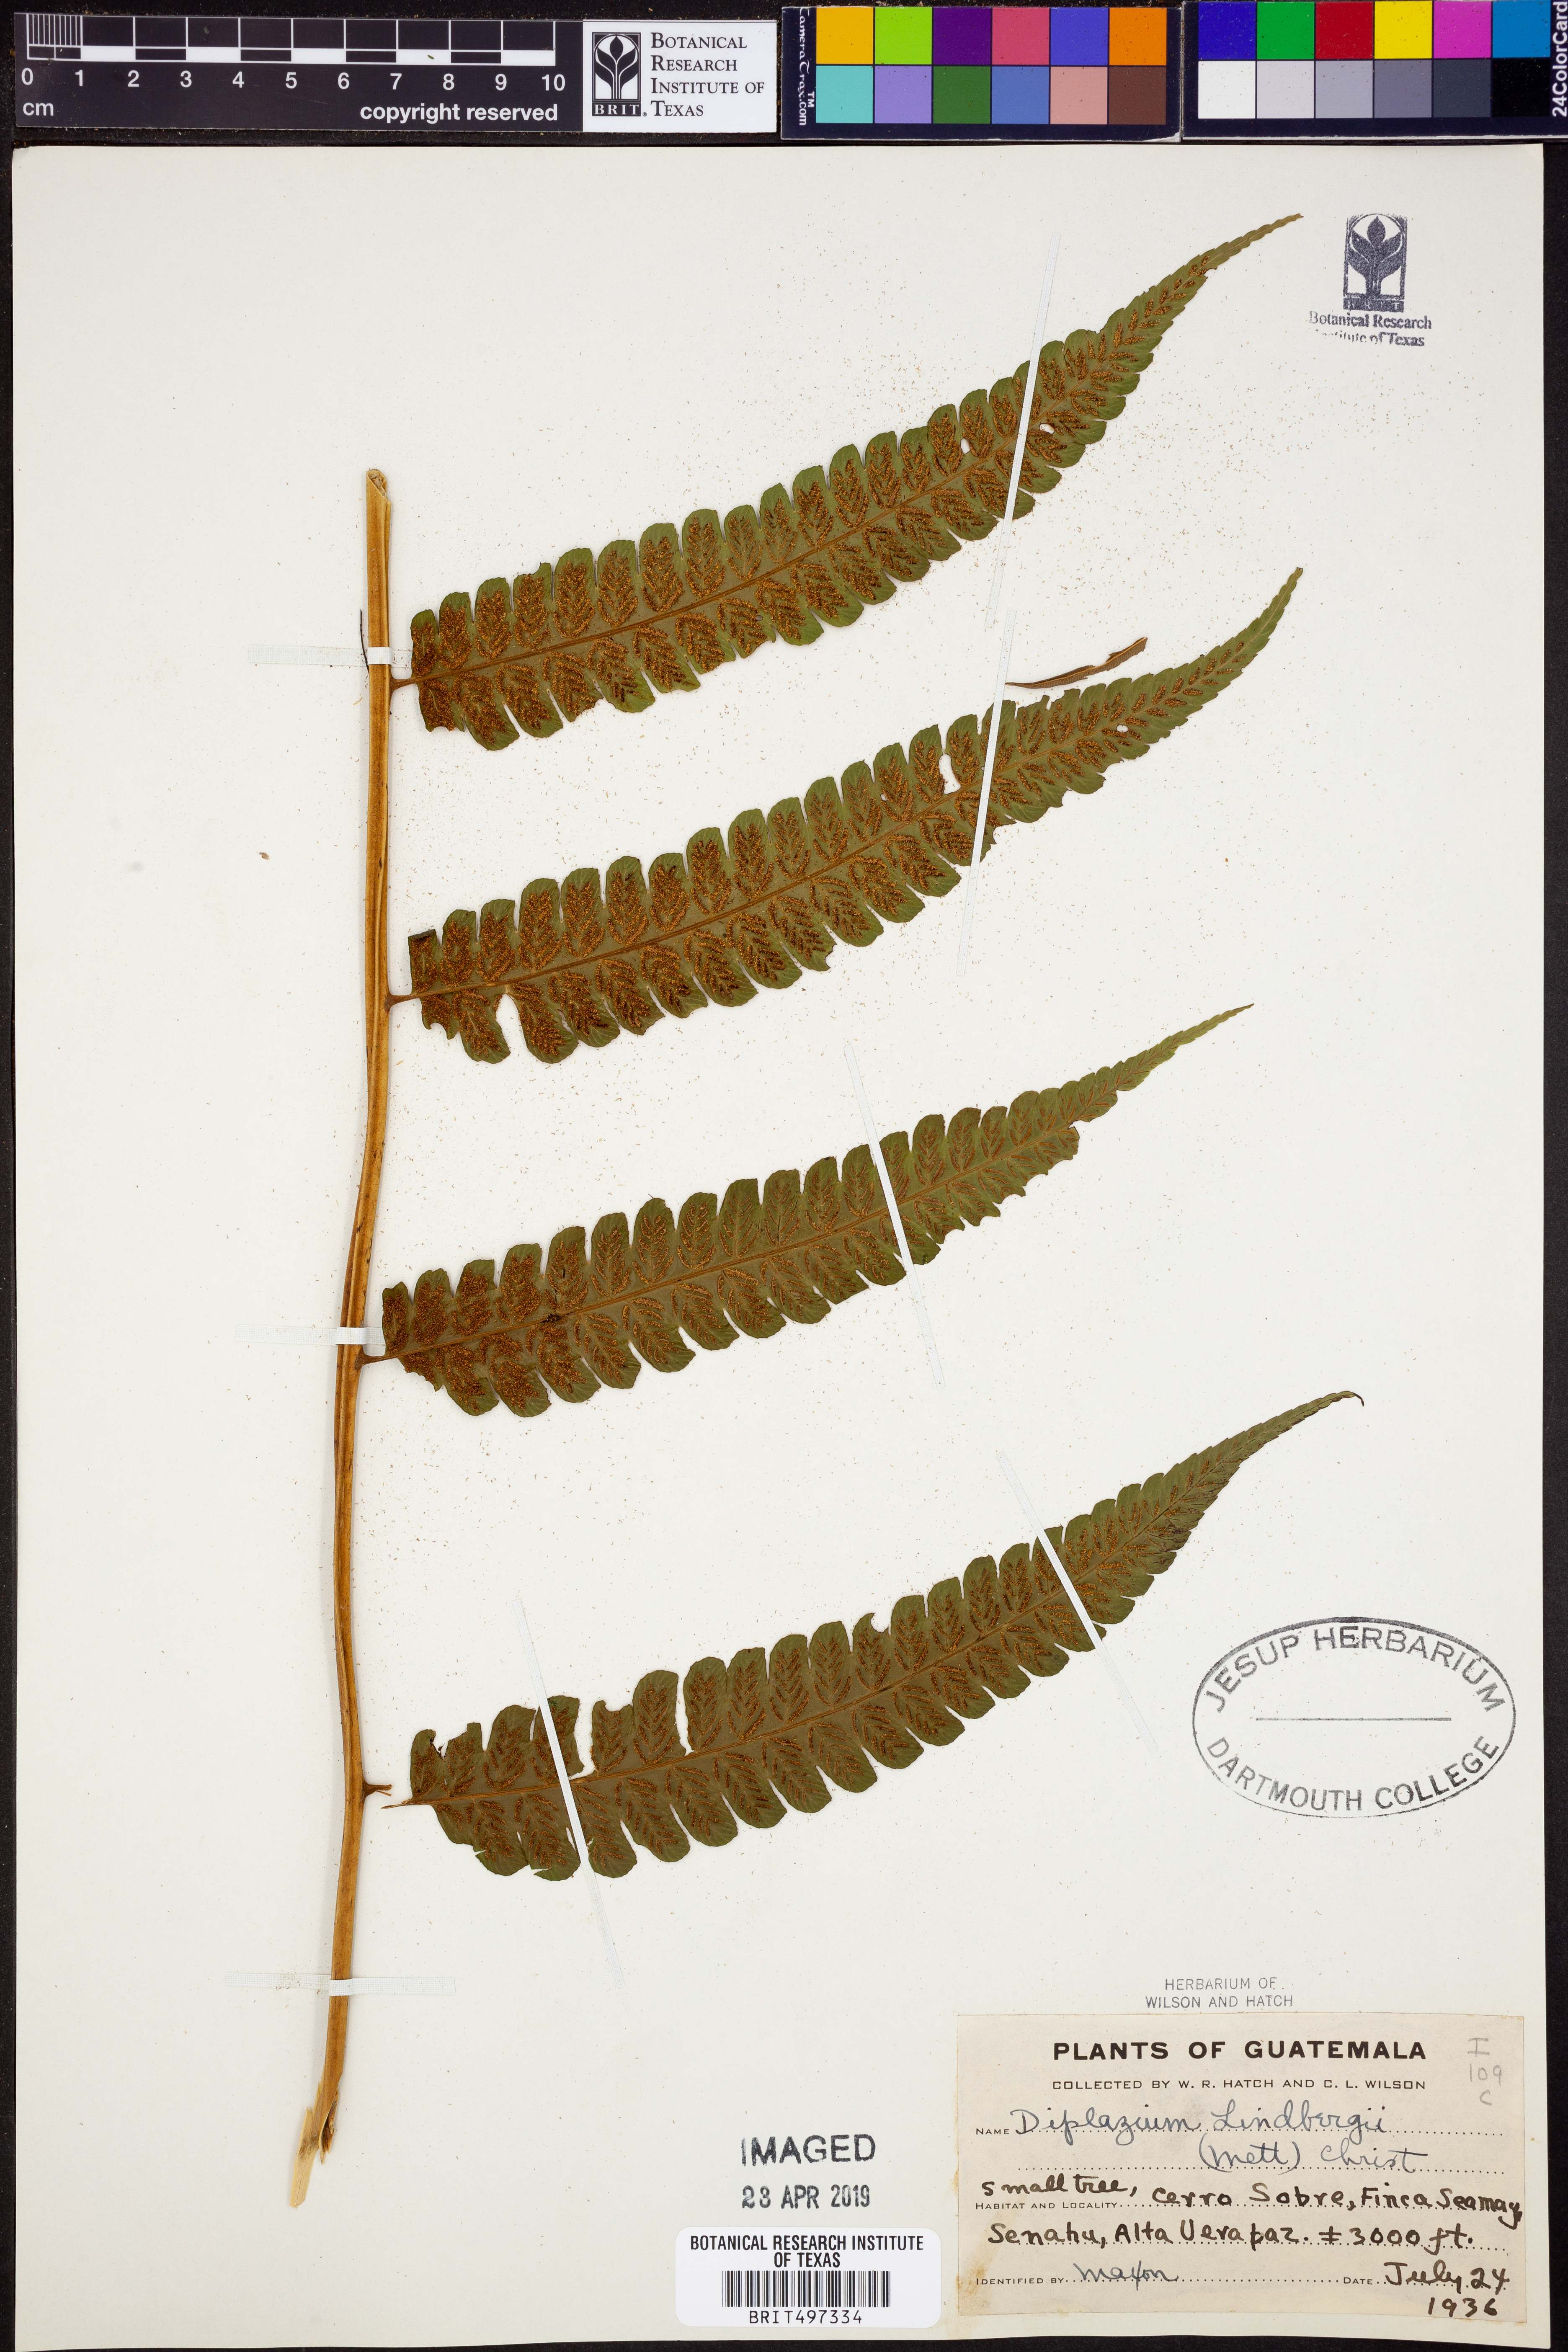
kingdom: Plantae
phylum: Tracheophyta
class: Polypodiopsida
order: Polypodiales
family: Athyriaceae
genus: Diplazium
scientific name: Diplazium lindbergii
